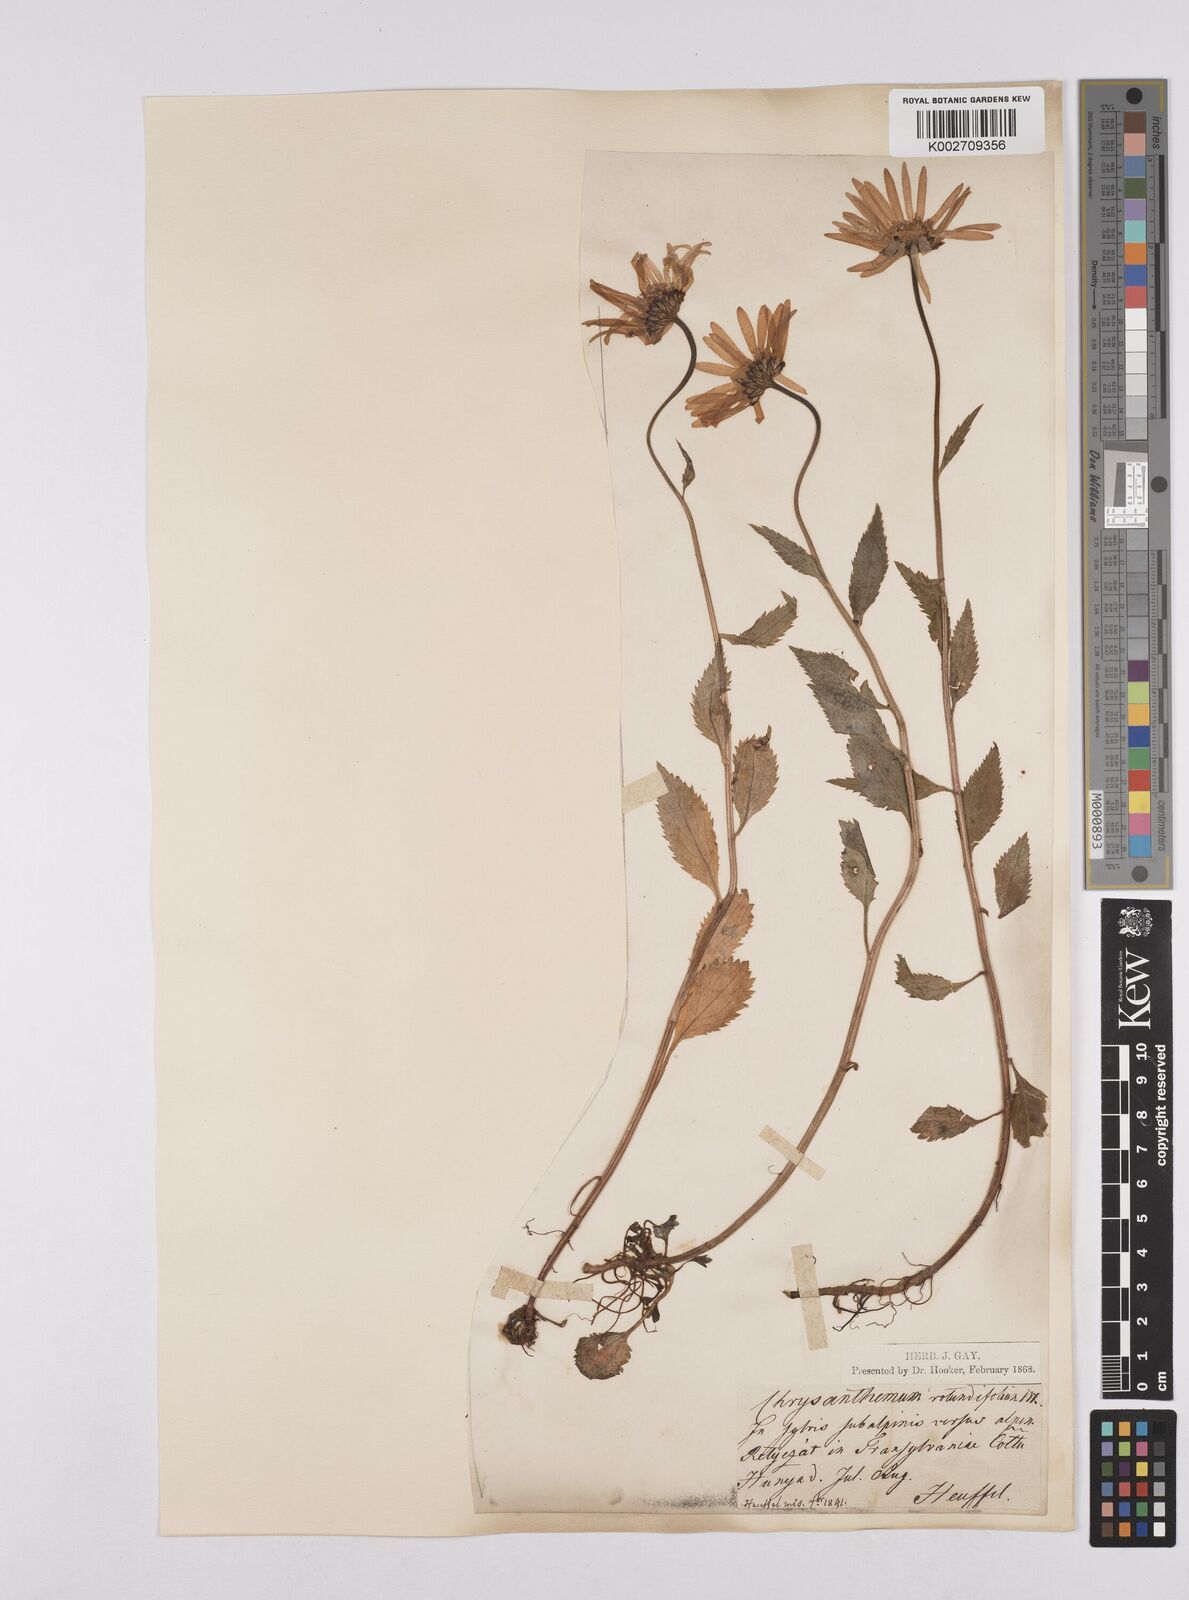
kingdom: Plantae
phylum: Tracheophyta
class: Magnoliopsida
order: Asterales
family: Asteraceae
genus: Leucanthemum
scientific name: Leucanthemum rotundifolium
